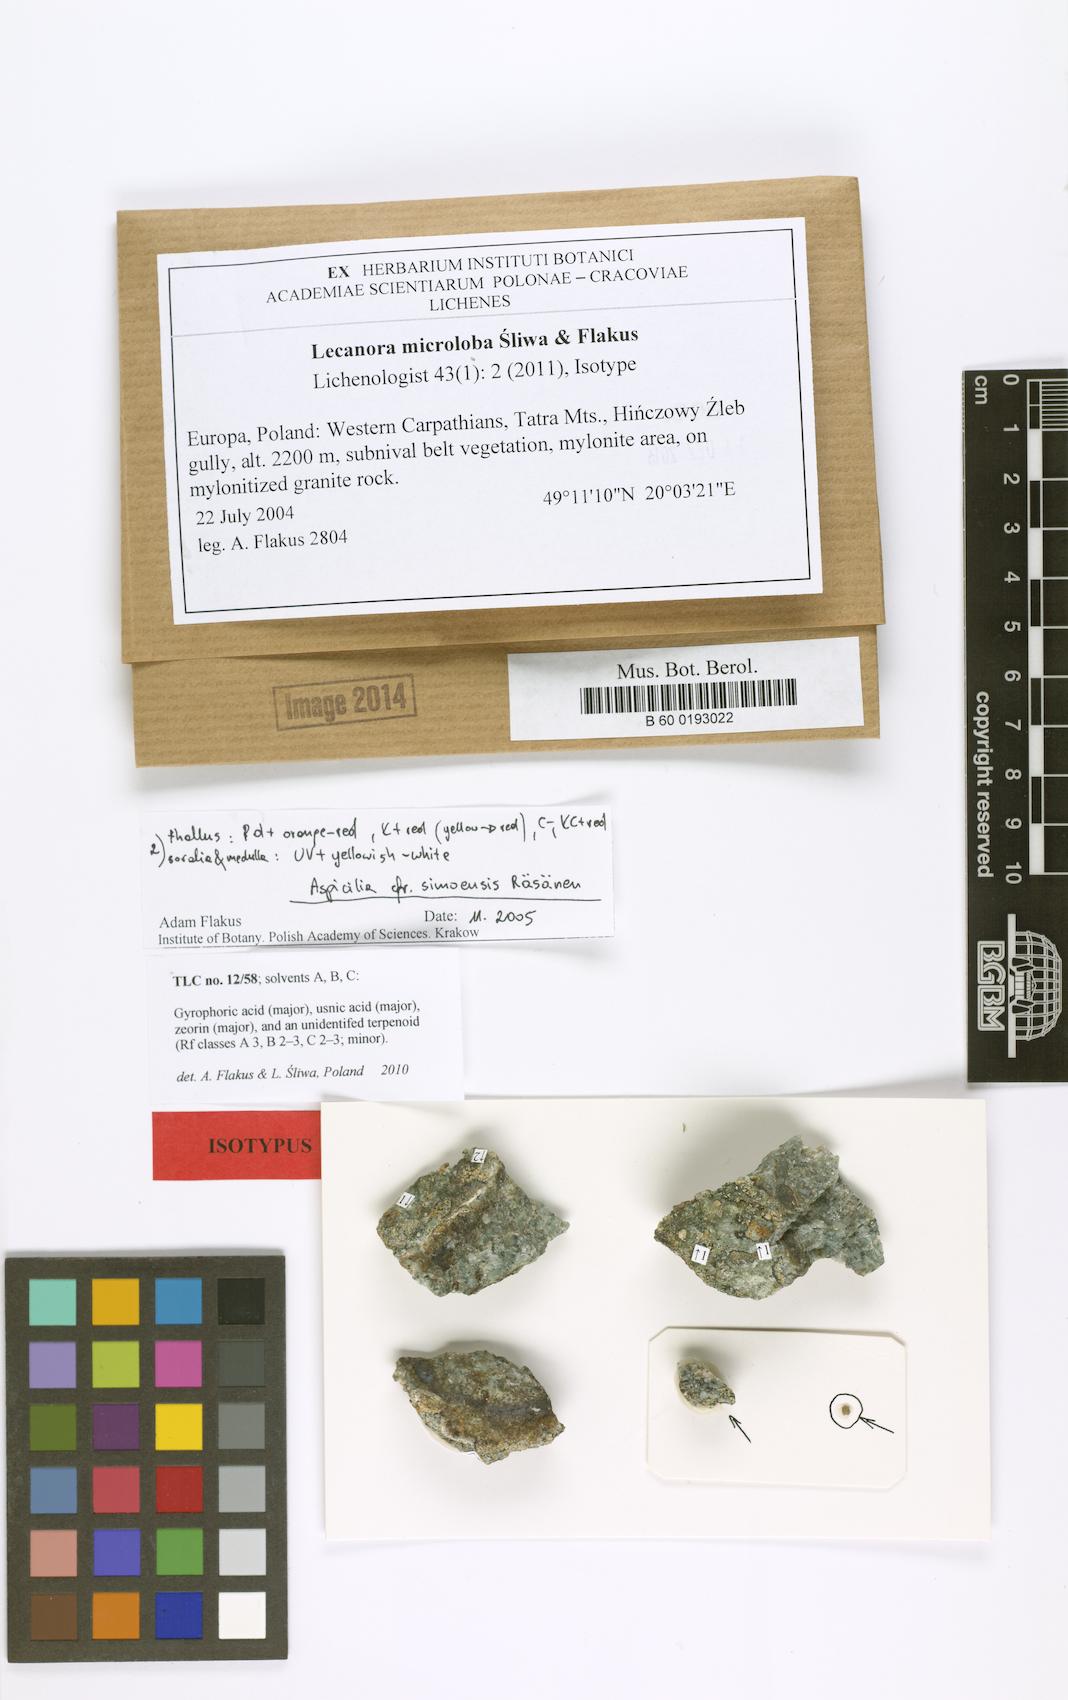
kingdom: Fungi
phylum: Ascomycota
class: Lecanoromycetes
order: Lecanorales
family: Lecanoraceae
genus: Lecanora
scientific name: Lecanora microloba
